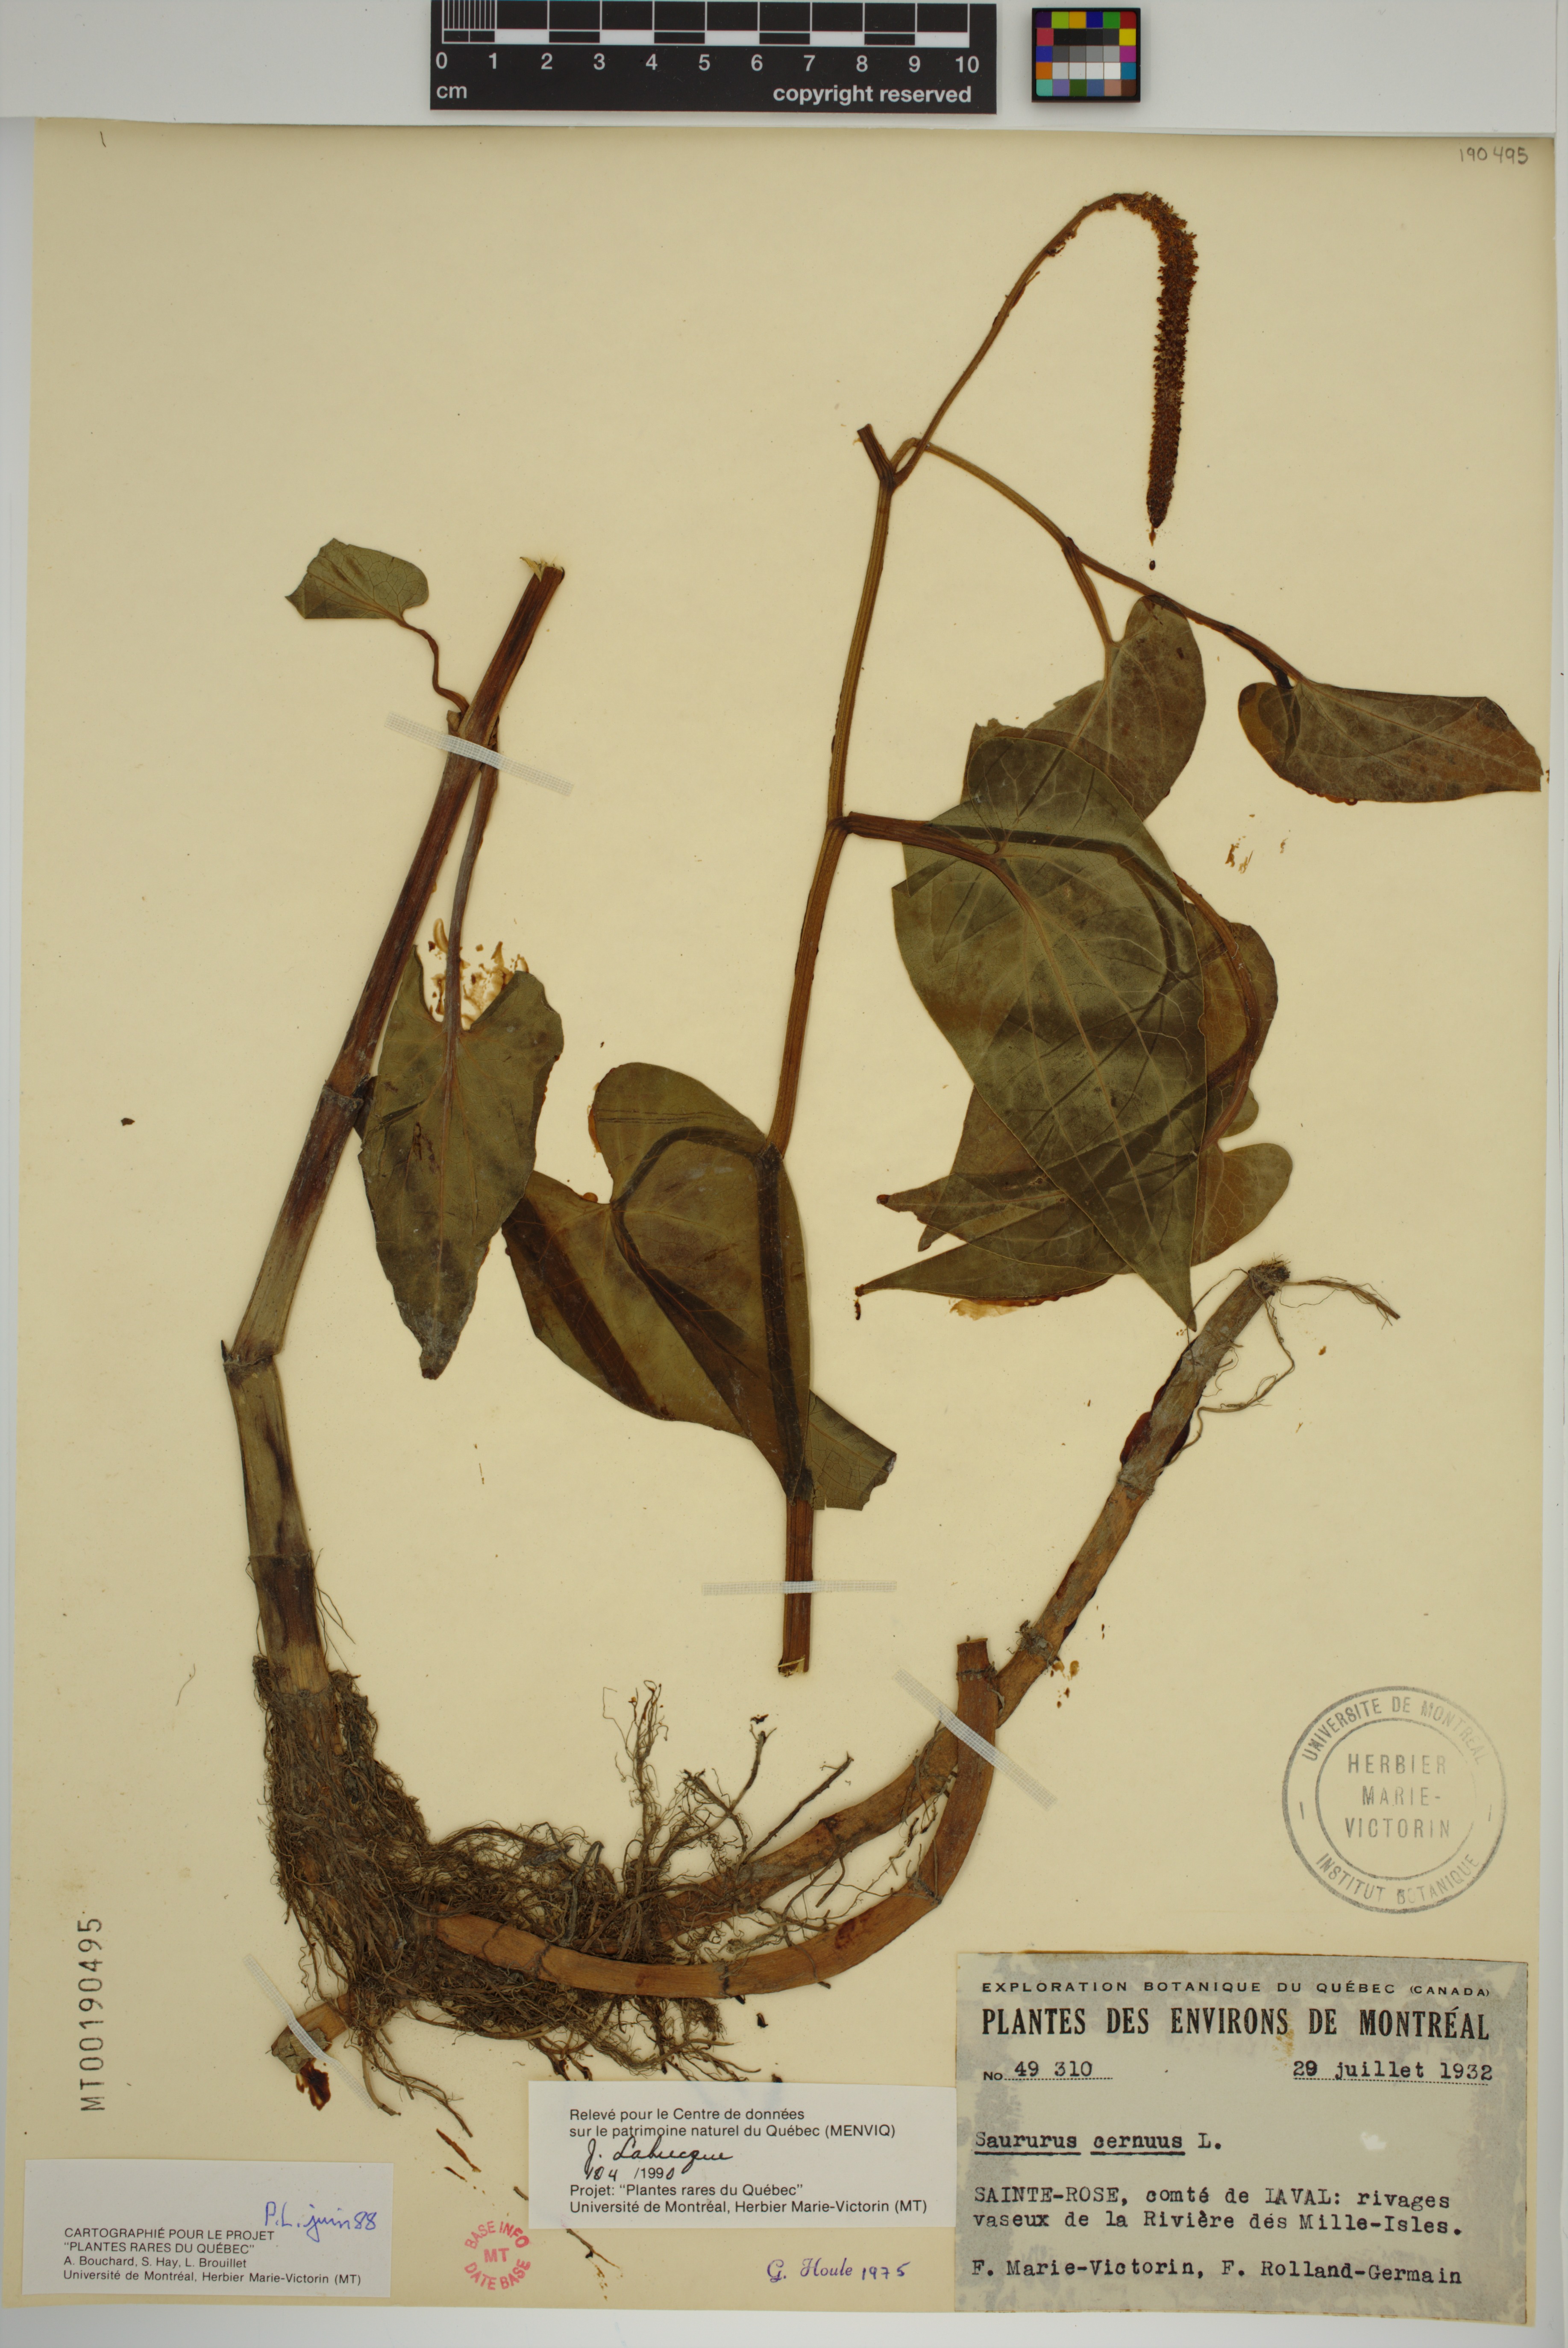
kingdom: Plantae
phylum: Tracheophyta
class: Magnoliopsida
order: Piperales
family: Saururaceae
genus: Saururus
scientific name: Saururus cernuus
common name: Lizard's-tail
